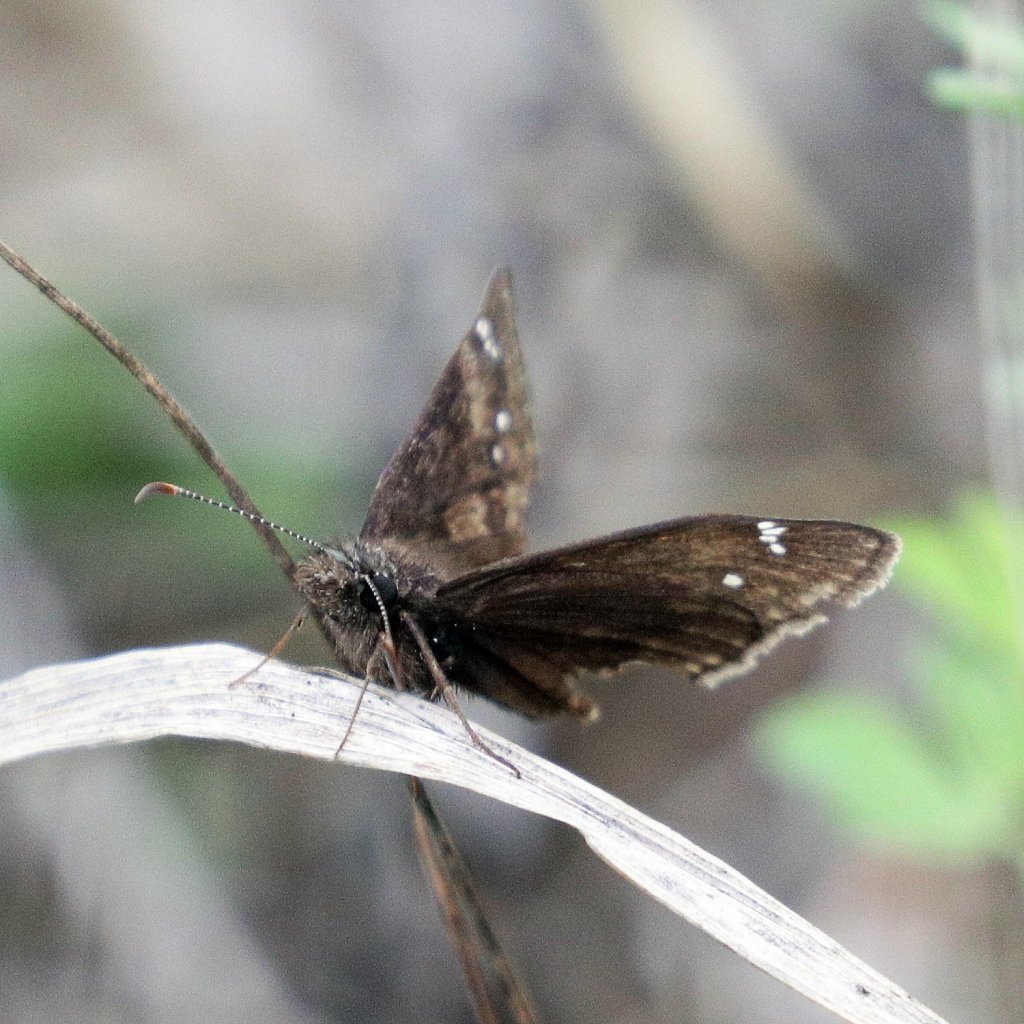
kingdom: Animalia
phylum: Arthropoda
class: Insecta
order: Lepidoptera
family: Hesperiidae
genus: Gesta
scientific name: Gesta
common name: Wild Indigo Duskywing
